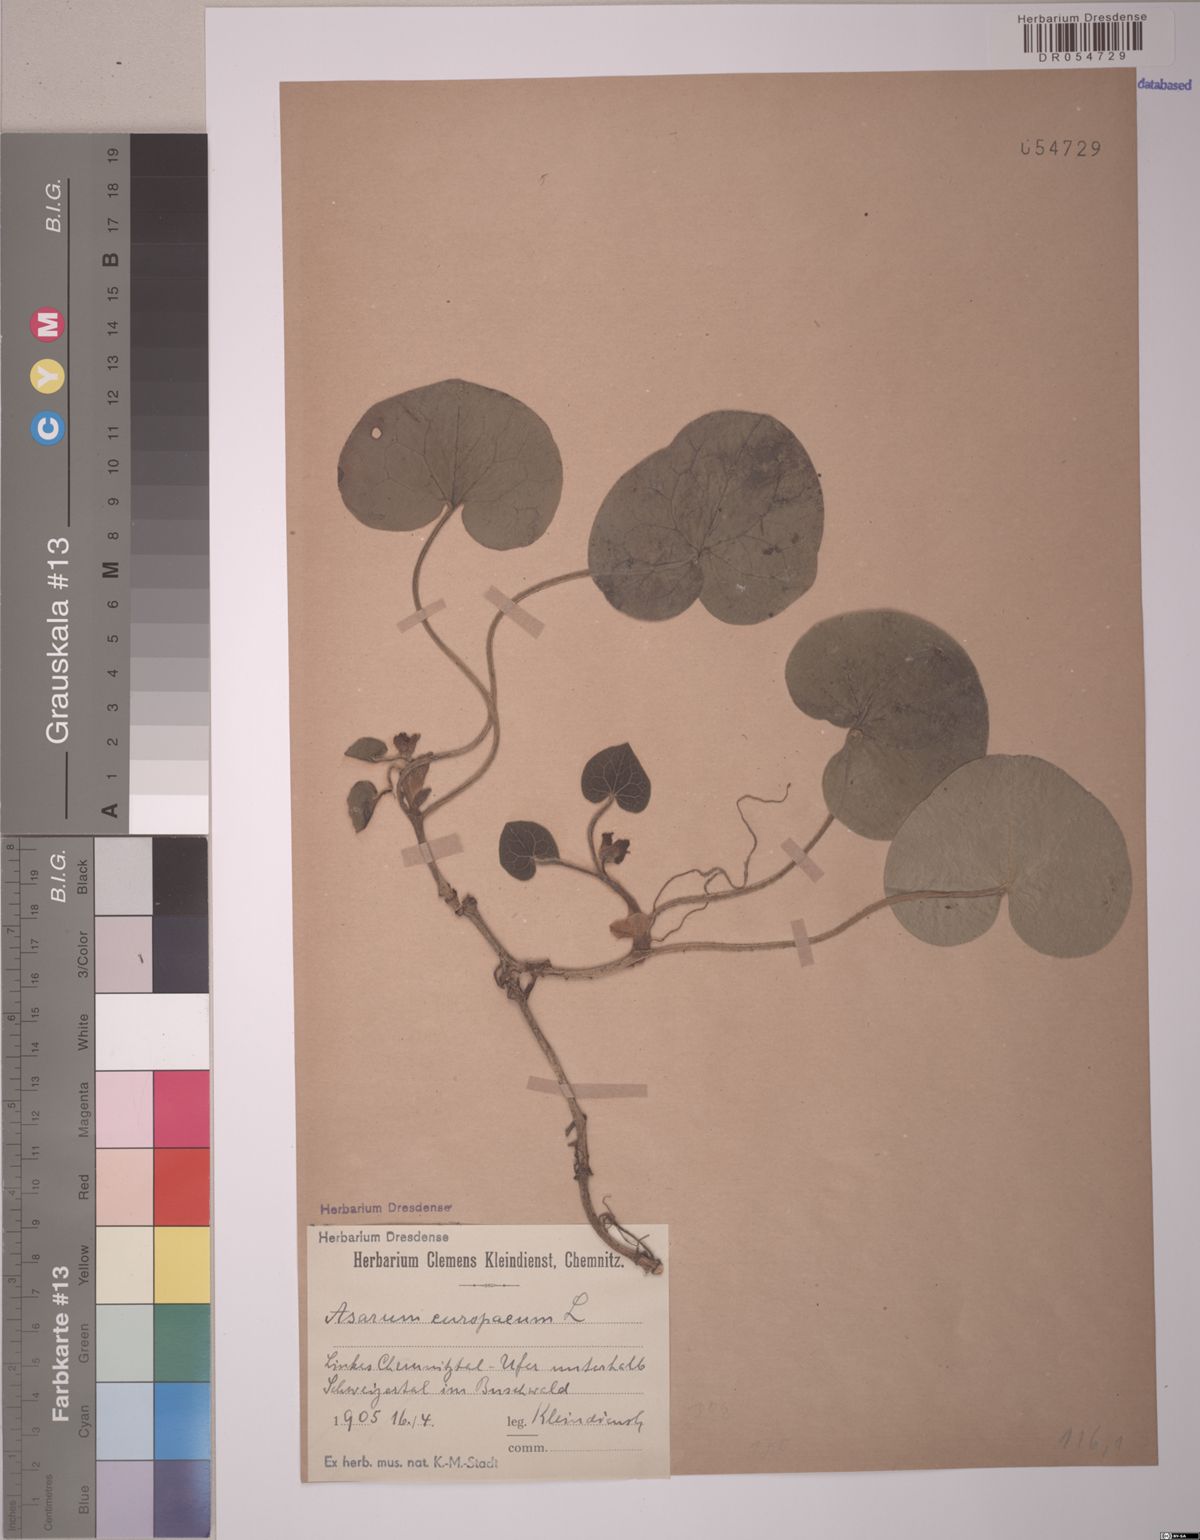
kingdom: Plantae
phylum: Tracheophyta
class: Magnoliopsida
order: Piperales
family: Aristolochiaceae
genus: Asarum
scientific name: Asarum europaeum
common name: Asarabacca
